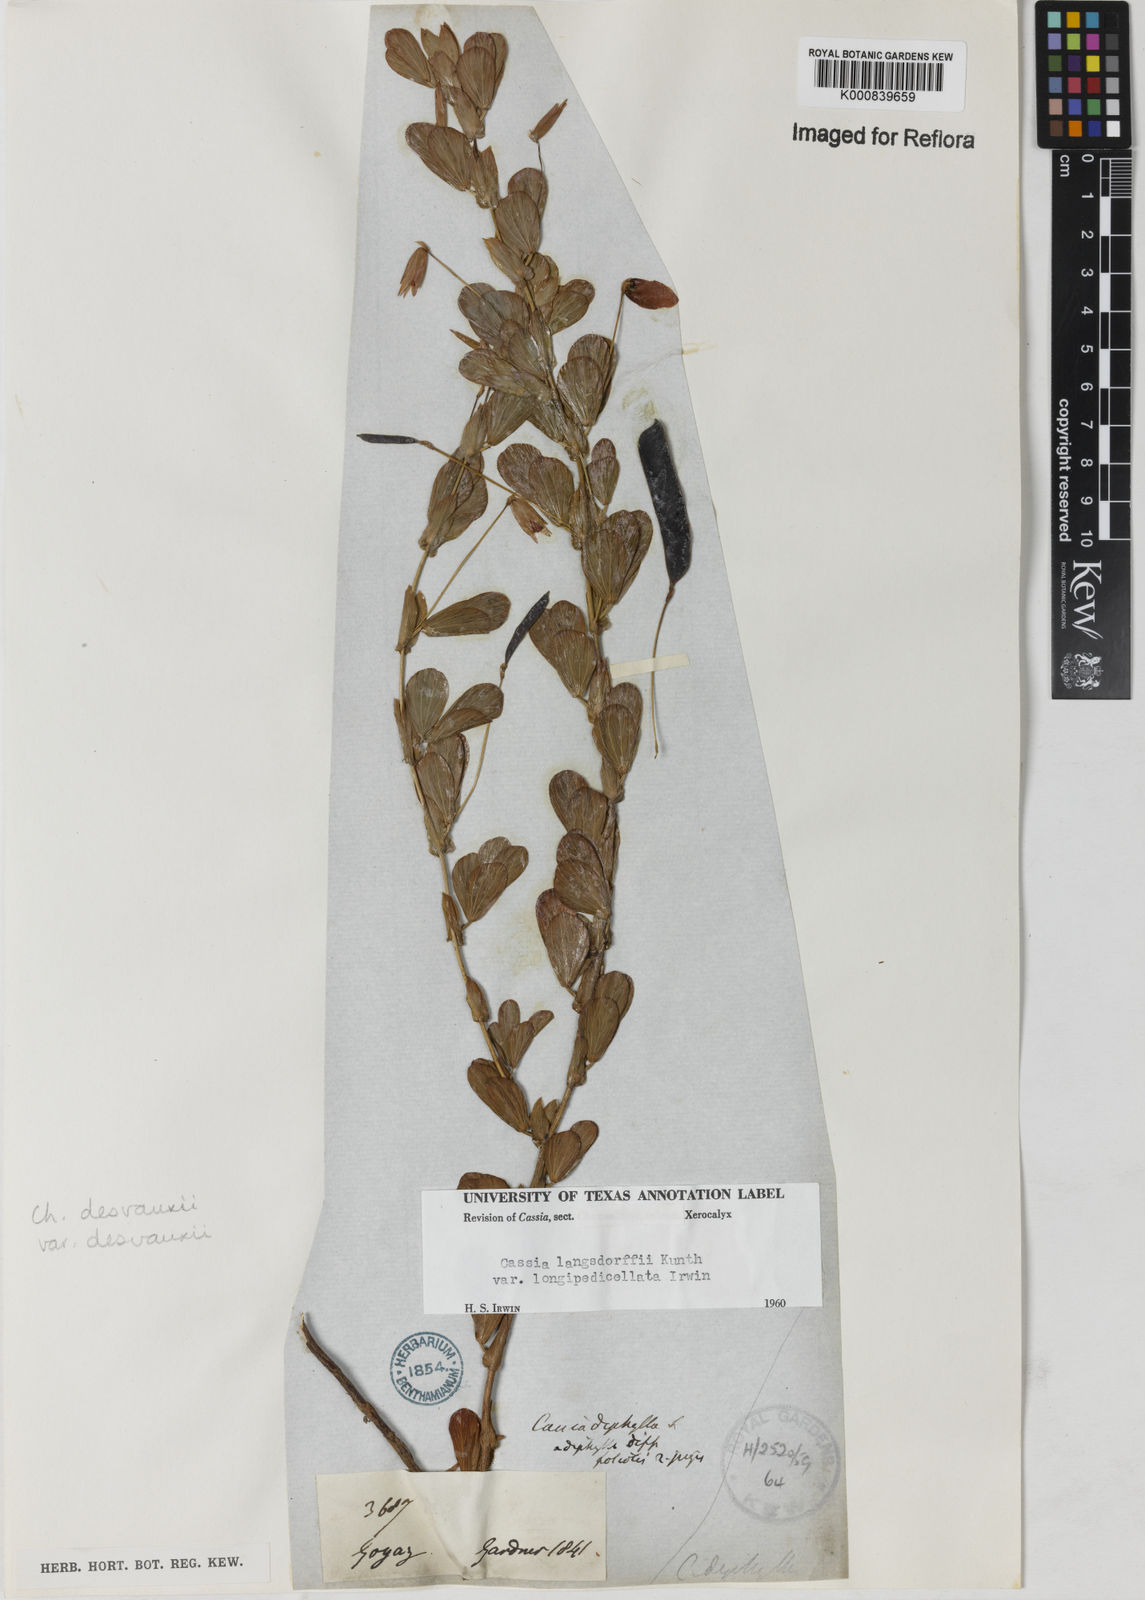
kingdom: Plantae
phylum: Tracheophyta
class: Magnoliopsida
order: Fabales
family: Fabaceae
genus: Chamaecrista
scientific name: Chamaecrista desvauxii
